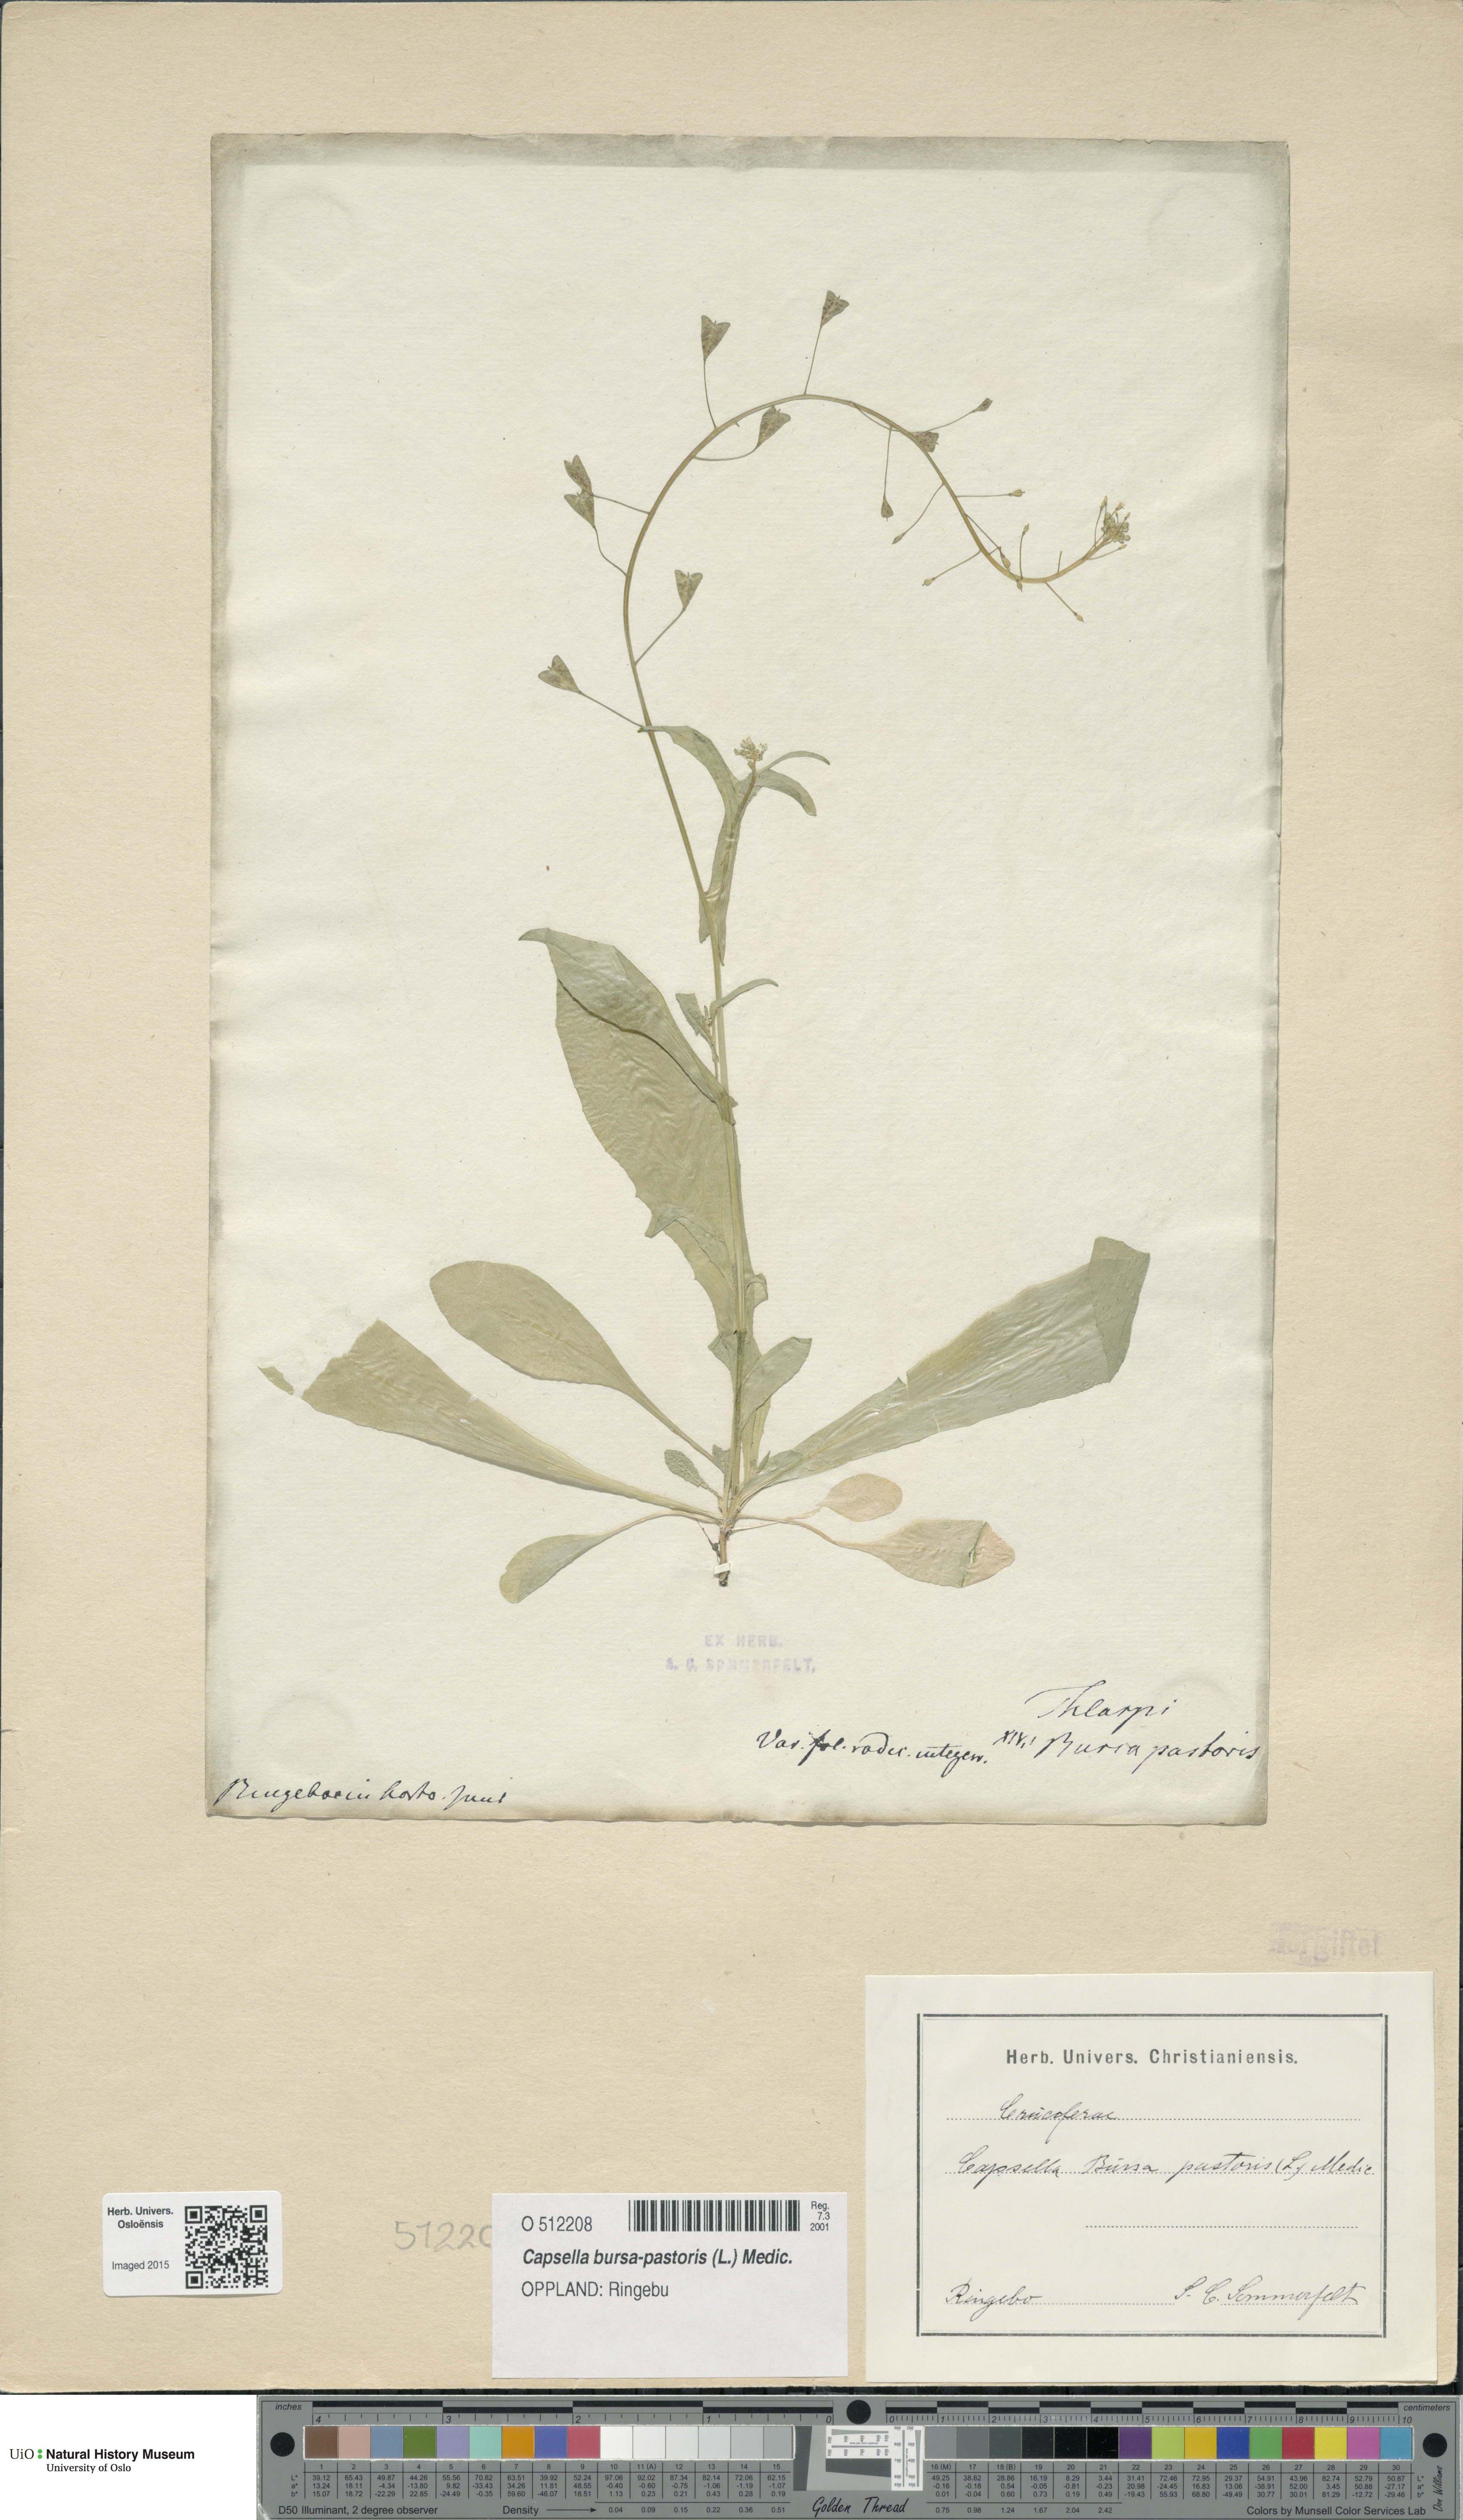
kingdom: Plantae
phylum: Tracheophyta
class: Magnoliopsida
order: Brassicales
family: Brassicaceae
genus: Capsella
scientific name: Capsella bursa-pastoris
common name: Shepherd's purse
